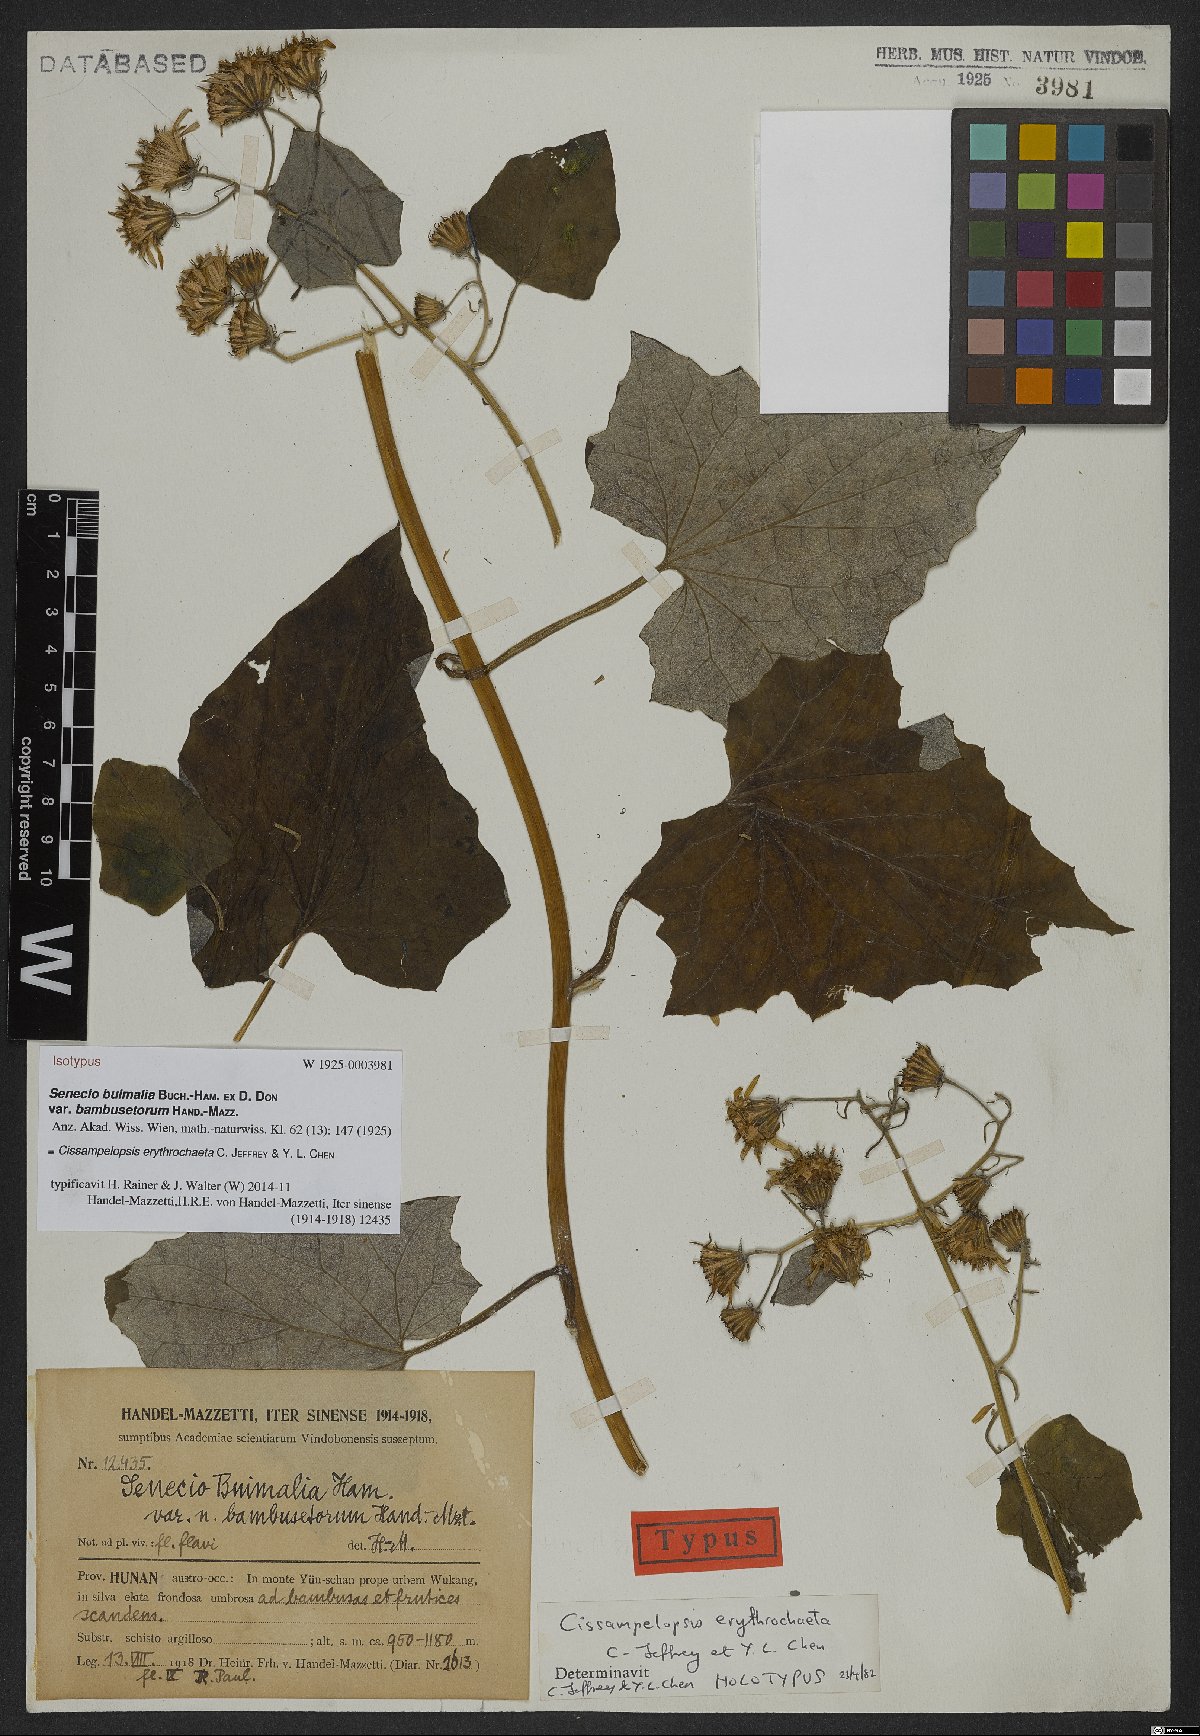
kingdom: Plantae
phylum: Tracheophyta
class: Magnoliopsida
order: Asterales
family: Asteraceae
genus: Cissampelopsis
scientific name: Cissampelopsis erythrochaeta
